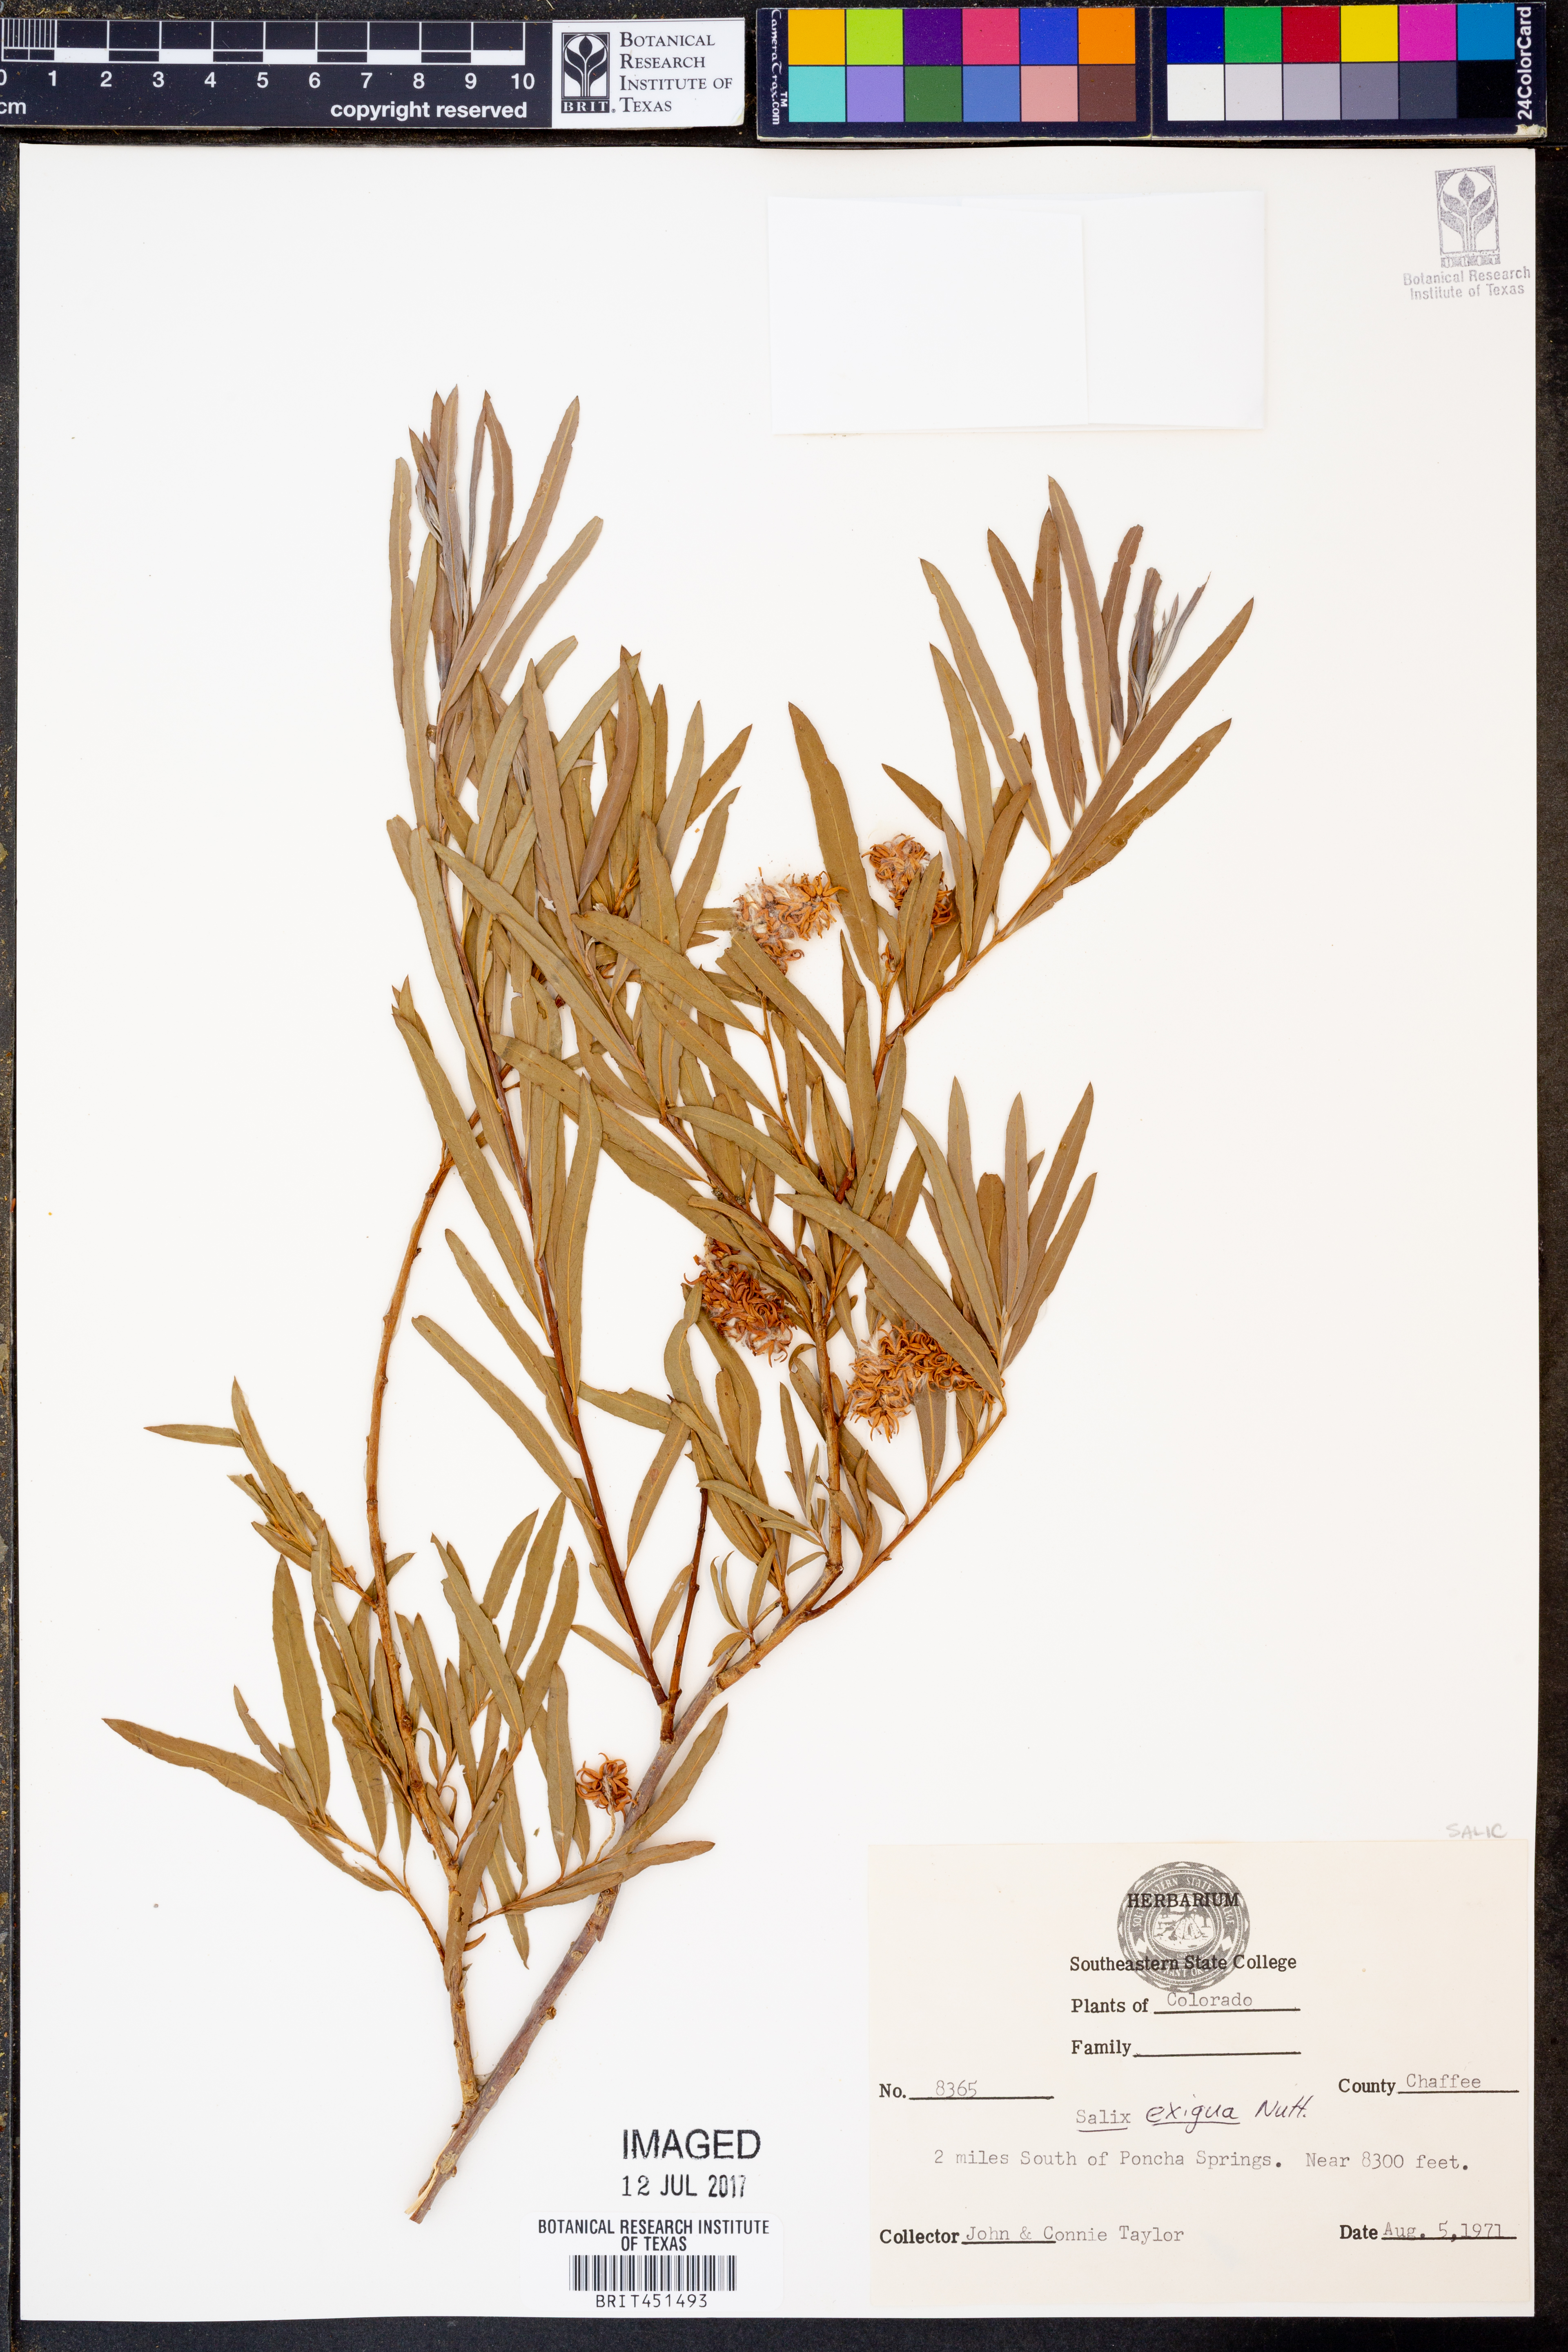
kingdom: Plantae
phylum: Tracheophyta
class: Magnoliopsida
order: Malpighiales
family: Salicaceae
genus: Salix
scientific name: Salix exigua
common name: Coyote willow
